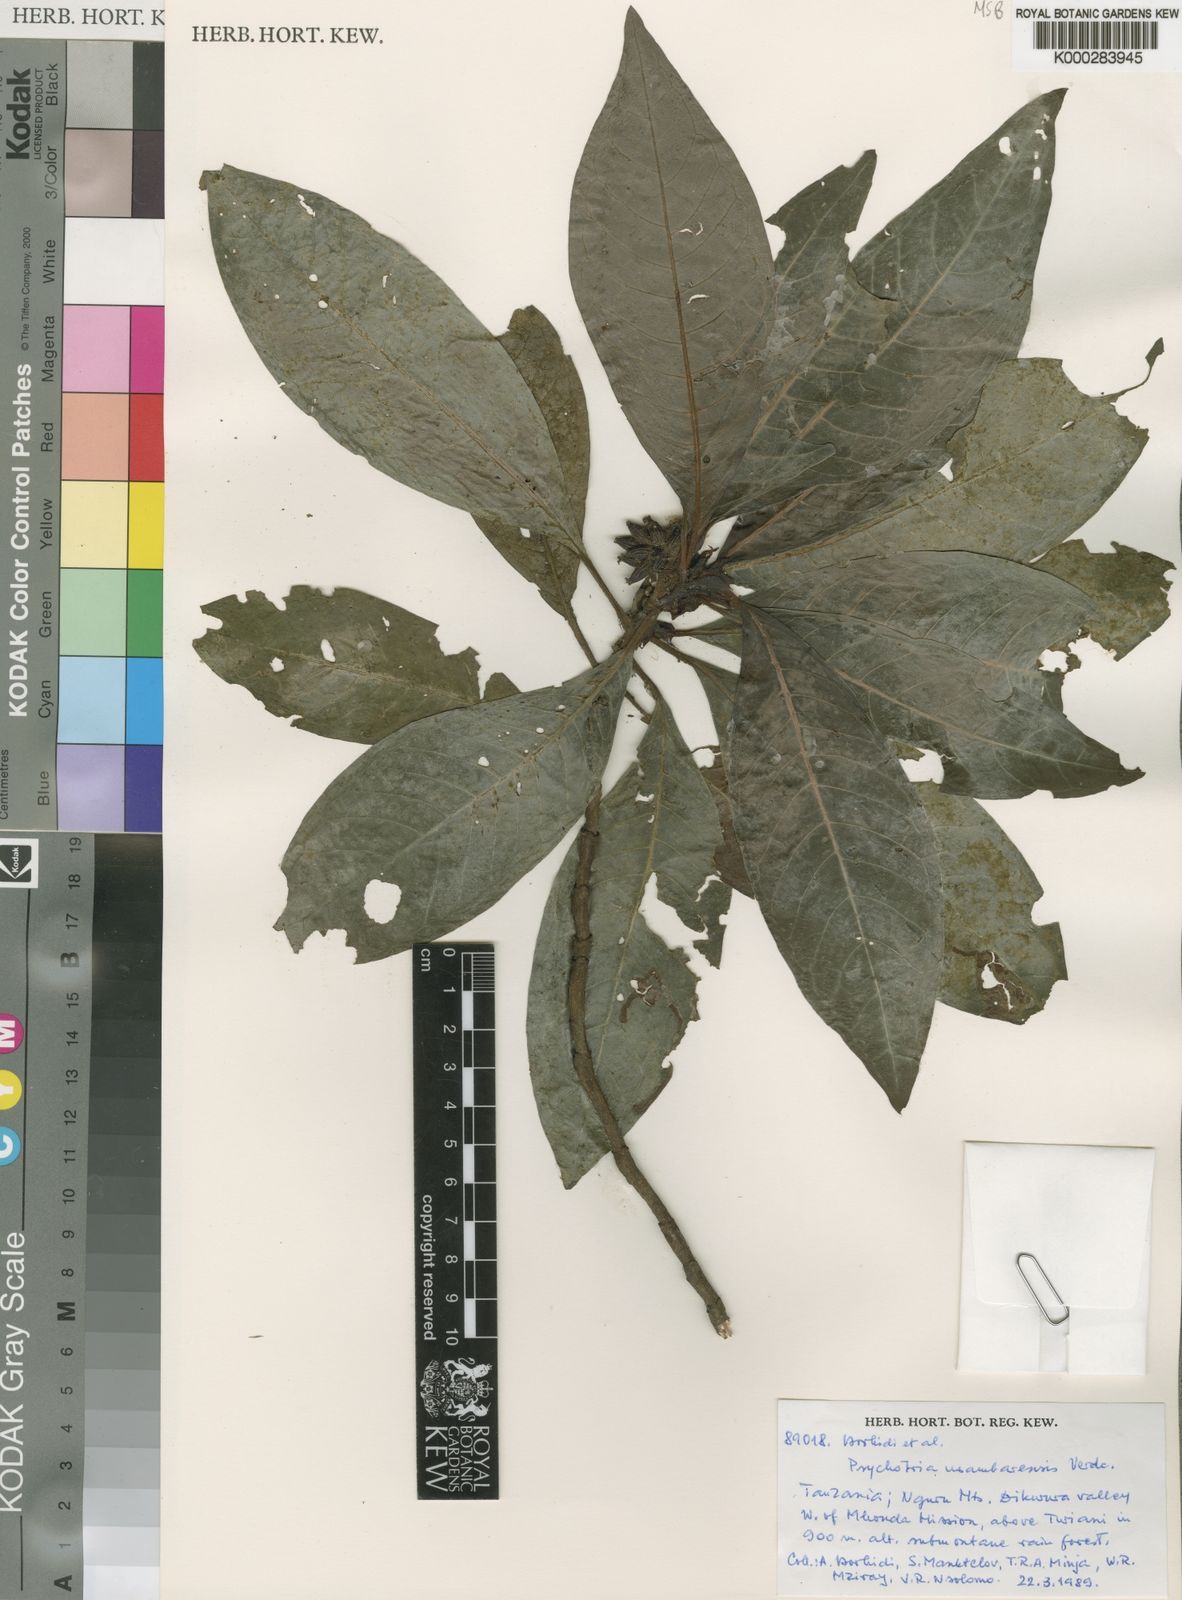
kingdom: Plantae
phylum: Tracheophyta
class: Magnoliopsida
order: Gentianales
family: Rubiaceae
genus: Psychotria
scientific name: Psychotria usambarensis
